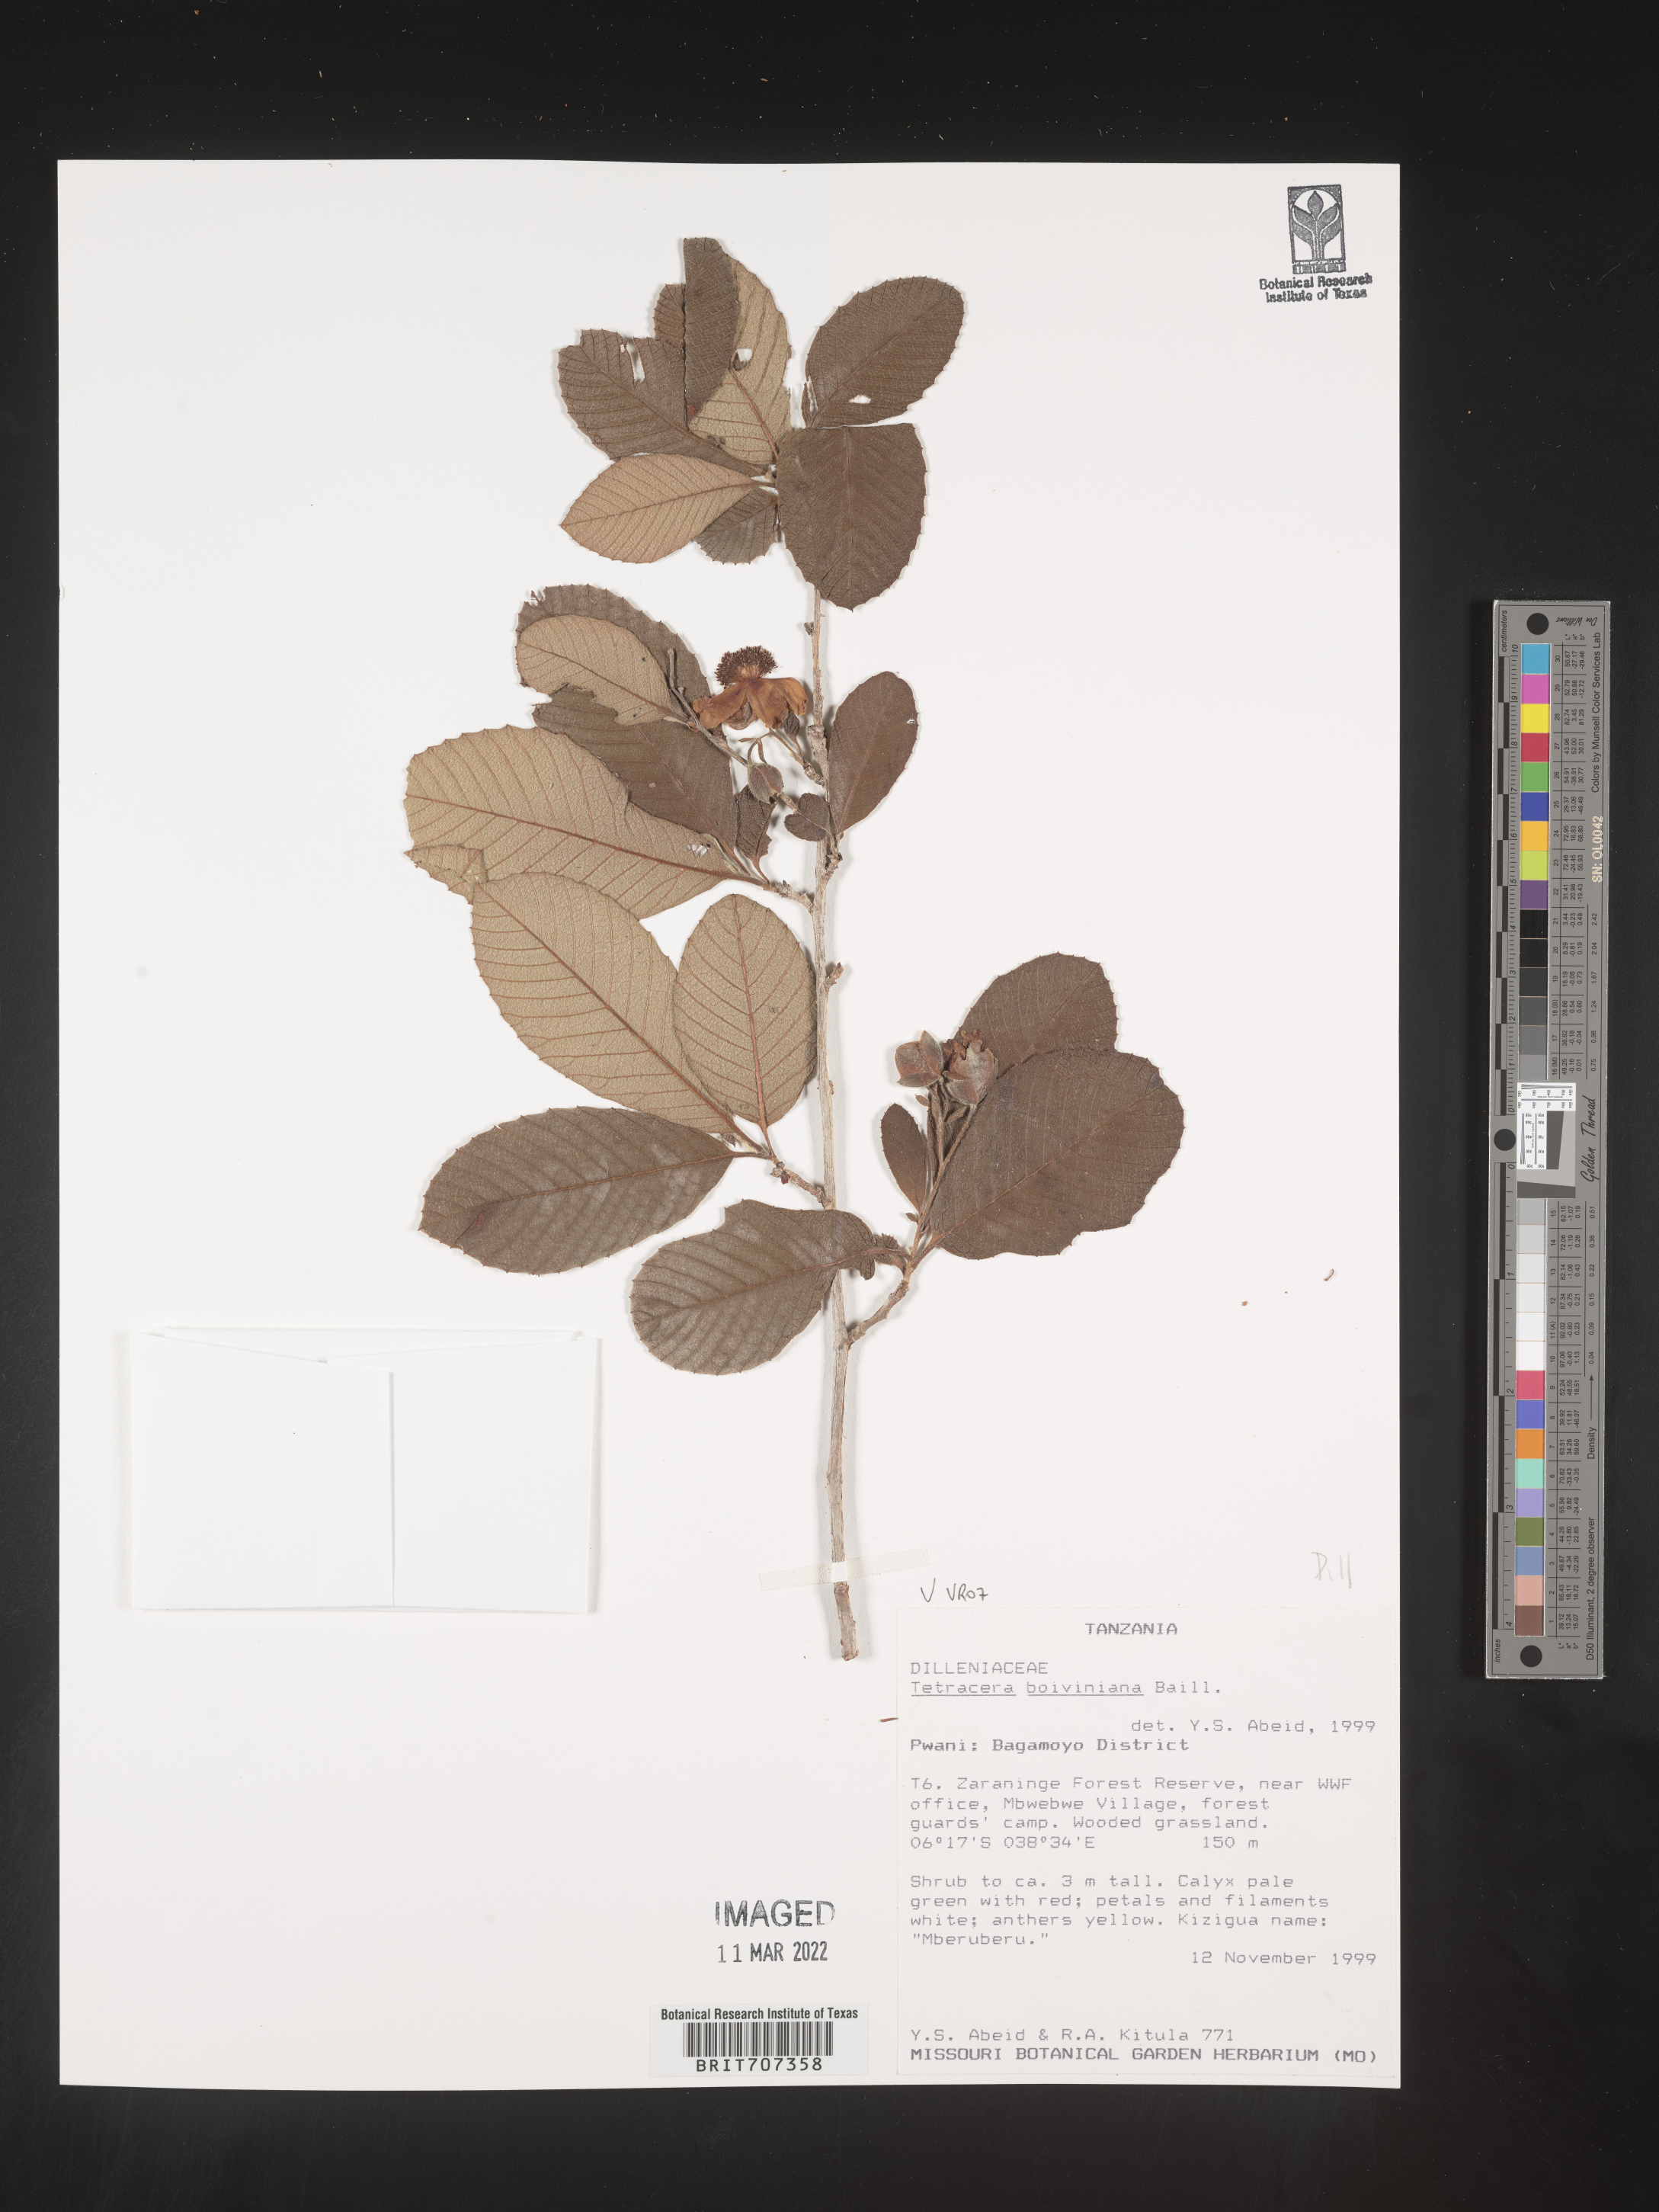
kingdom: Plantae
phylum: Tracheophyta
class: Magnoliopsida
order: Dilleniales
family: Dilleniaceae
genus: Tetracera
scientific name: Tetracera
